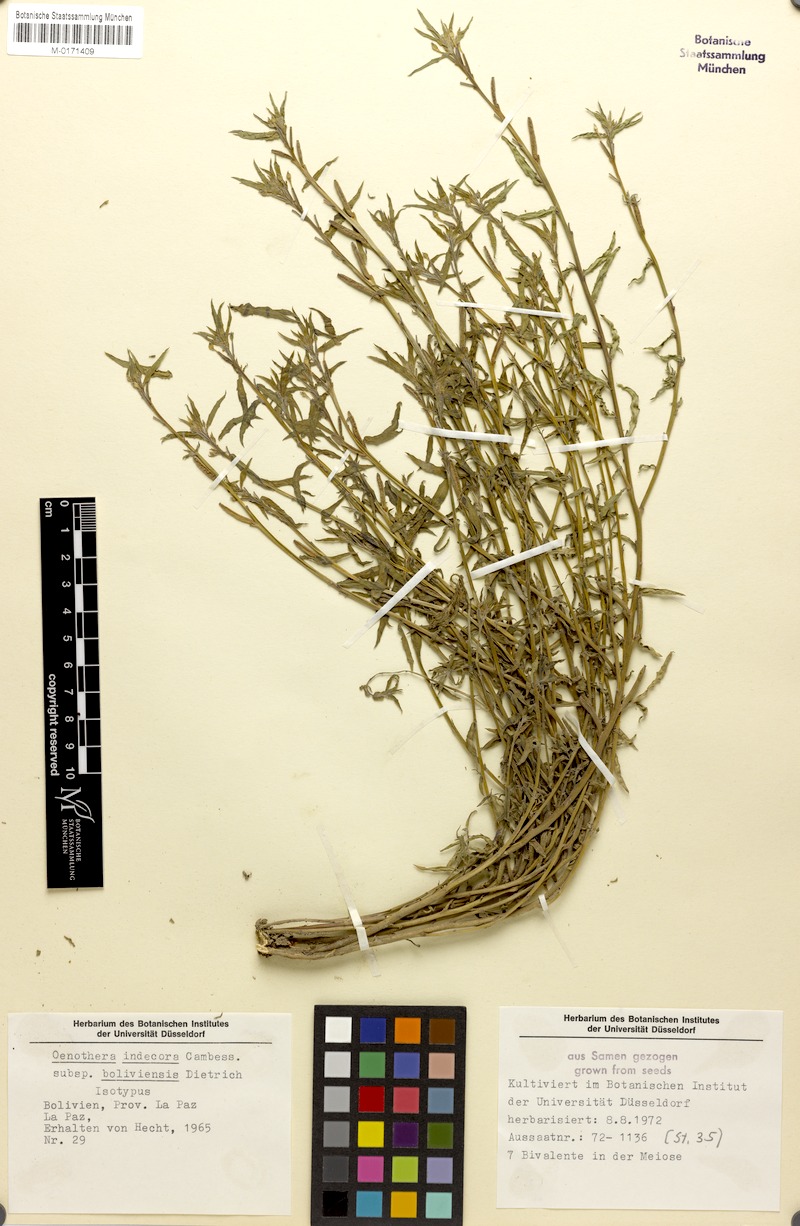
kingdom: Plantae
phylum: Tracheophyta
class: Magnoliopsida
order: Myrtales
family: Onagraceae
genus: Oenothera
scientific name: Oenothera indecora
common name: Small-flower evening-primrose
